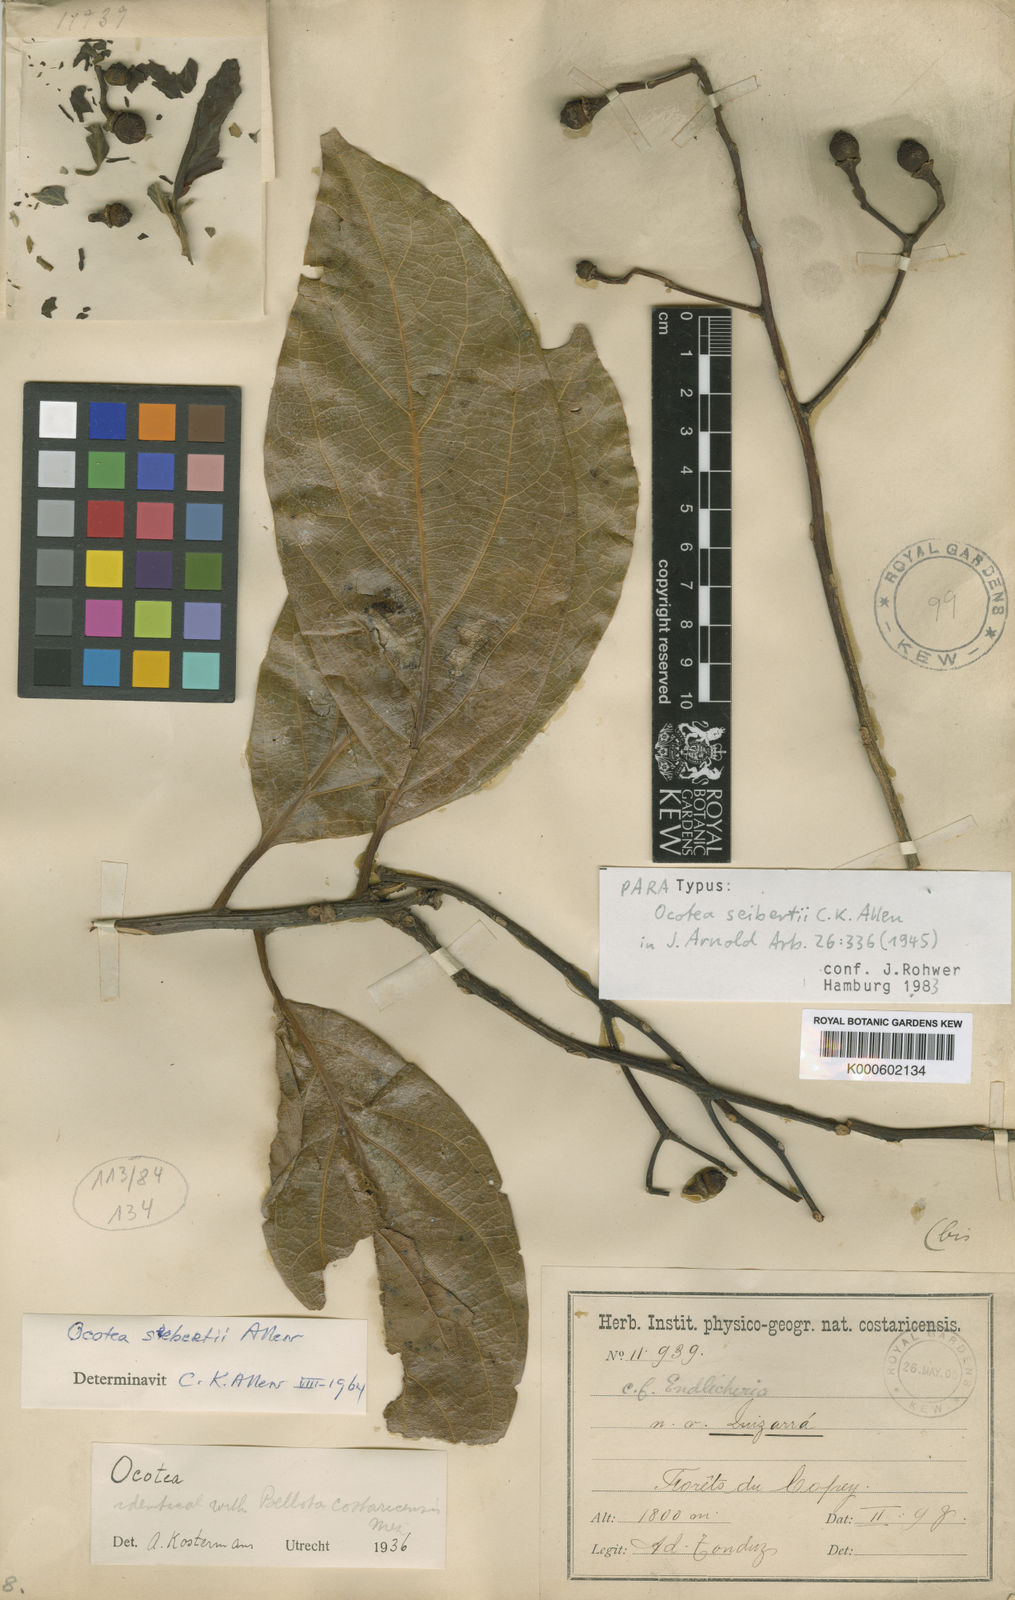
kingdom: Plantae
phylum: Tracheophyta
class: Magnoliopsida
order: Laurales
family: Lauraceae
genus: Damburneya
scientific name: Damburneya cufodontisii
